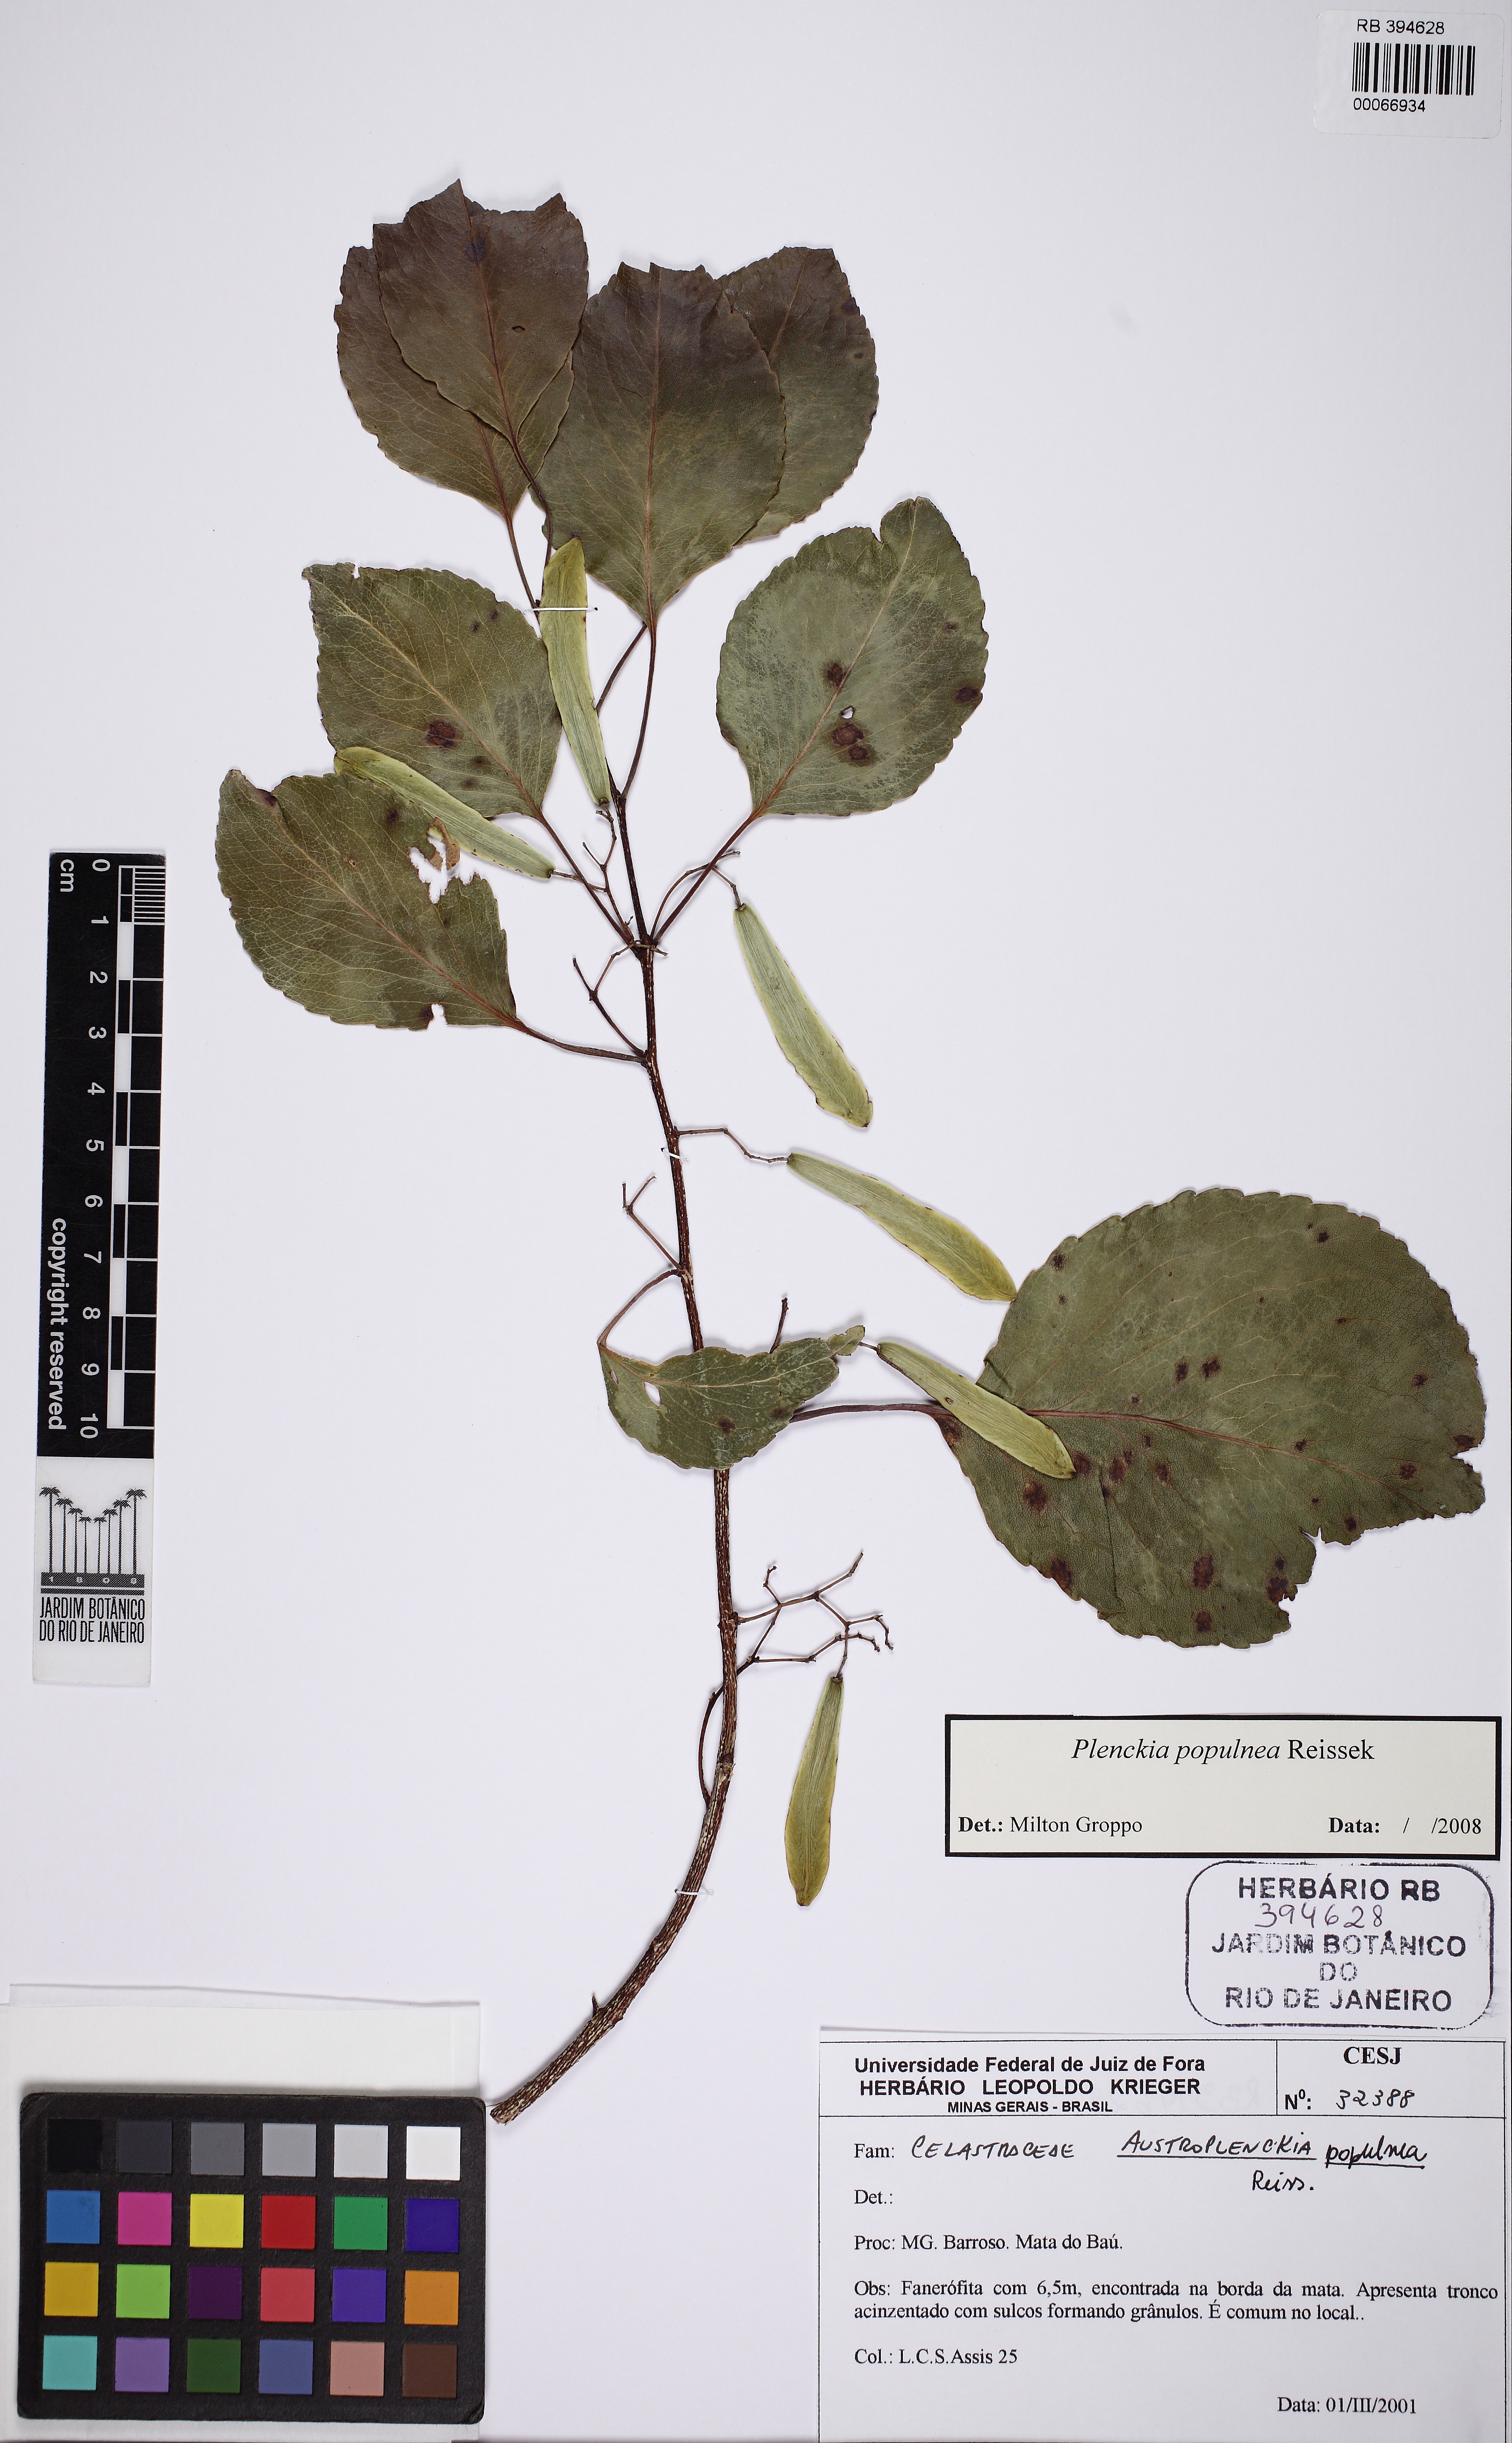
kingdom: Plantae
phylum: Tracheophyta
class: Magnoliopsida
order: Celastrales
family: Celastraceae
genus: Plenckia
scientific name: Plenckia populnea
